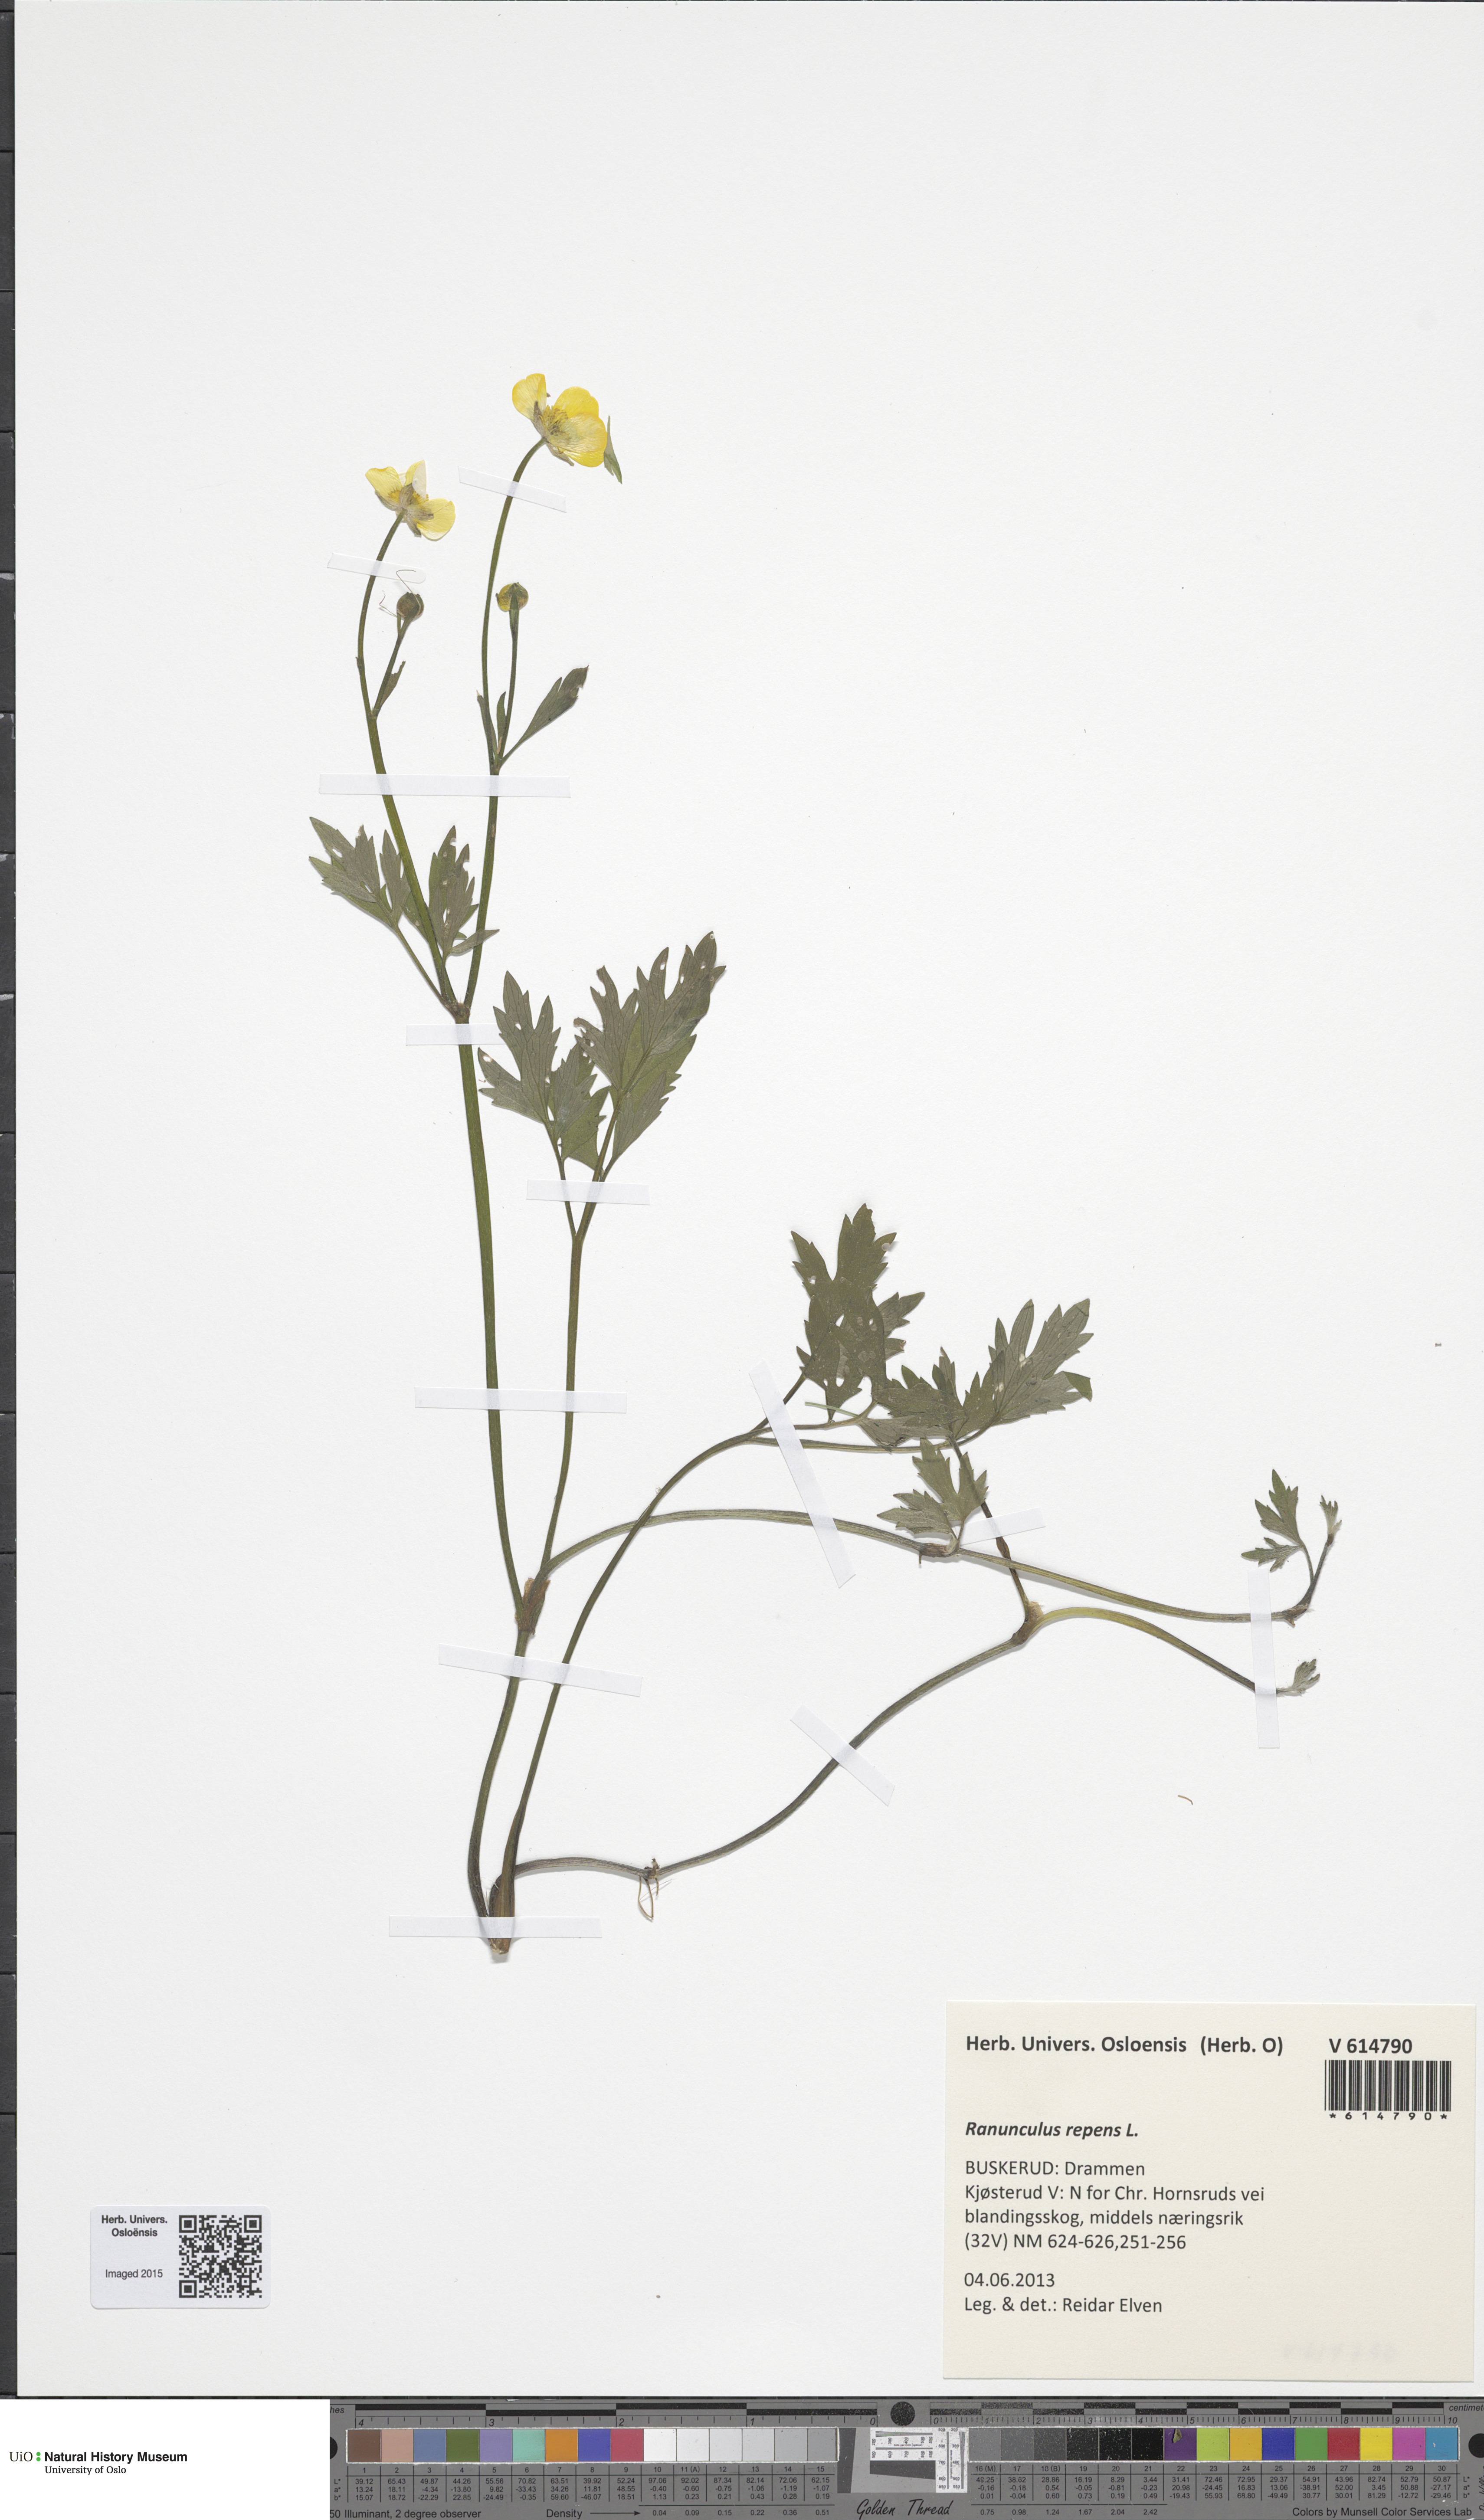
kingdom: Plantae
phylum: Tracheophyta
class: Magnoliopsida
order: Ranunculales
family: Ranunculaceae
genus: Ranunculus
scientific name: Ranunculus repens
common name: Creeping buttercup
